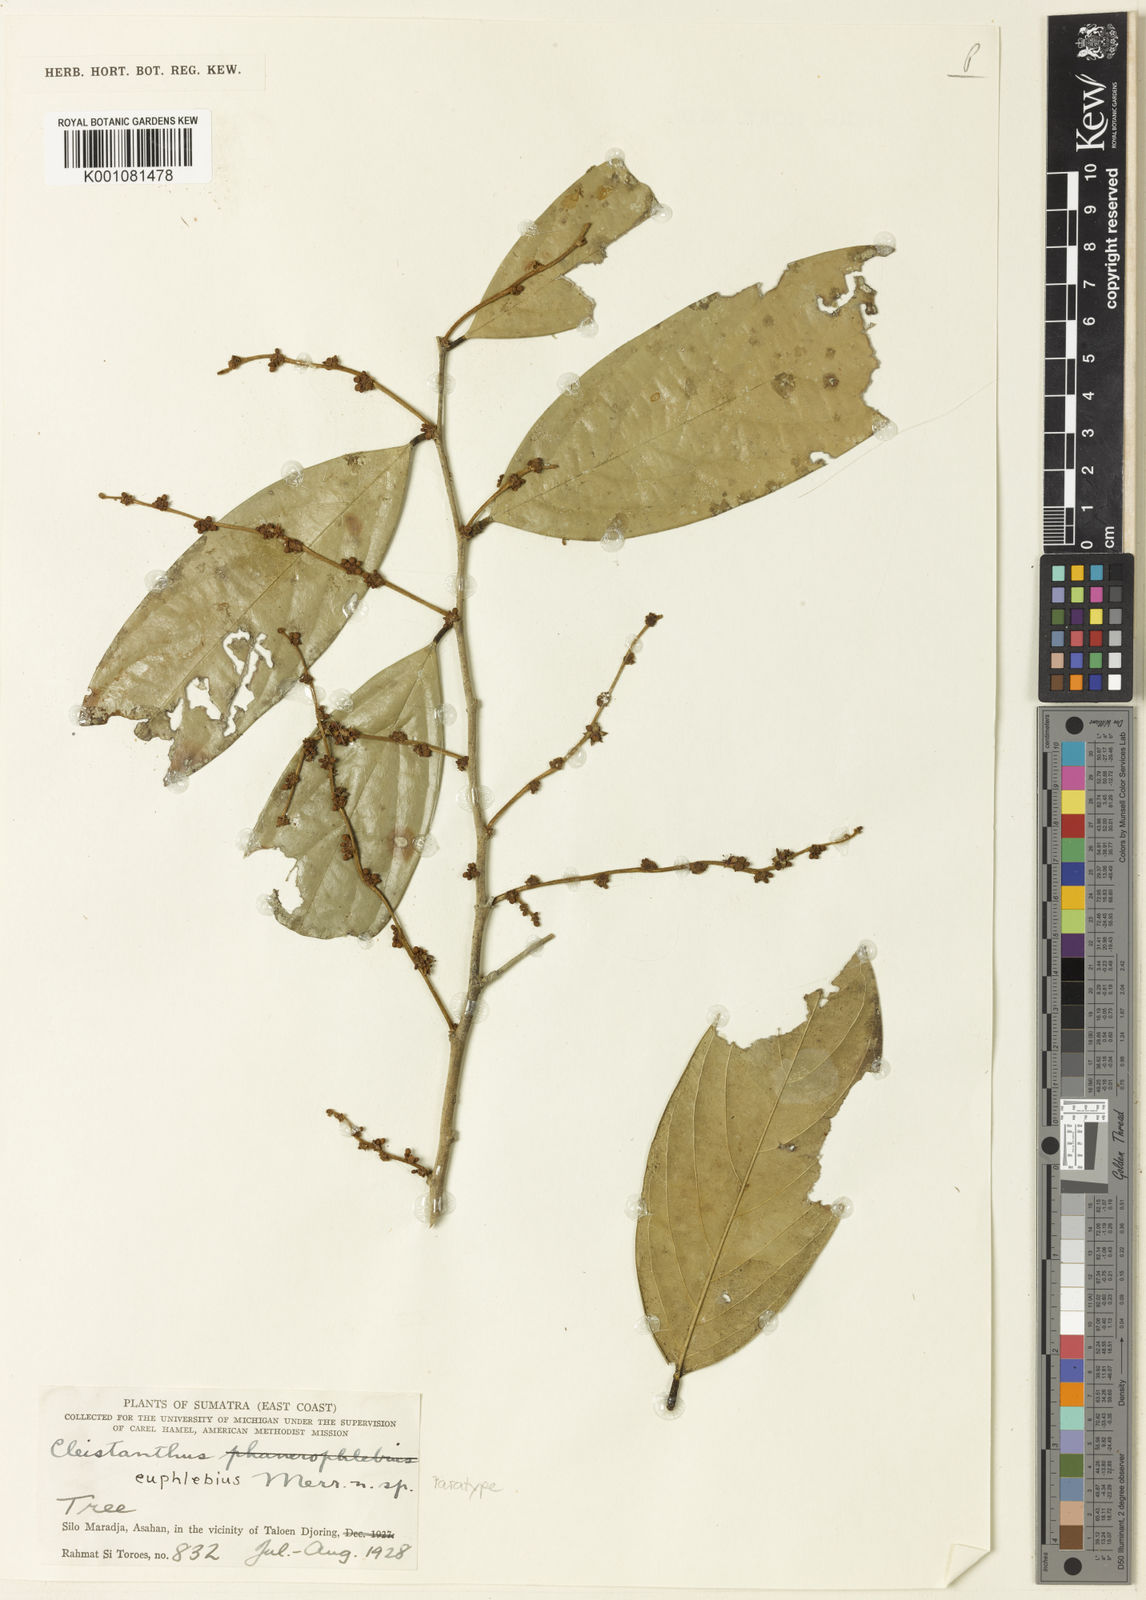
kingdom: Plantae
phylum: Tracheophyta
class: Magnoliopsida
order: Malpighiales
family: Phyllanthaceae
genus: Cleistanthus
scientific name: Cleistanthus
